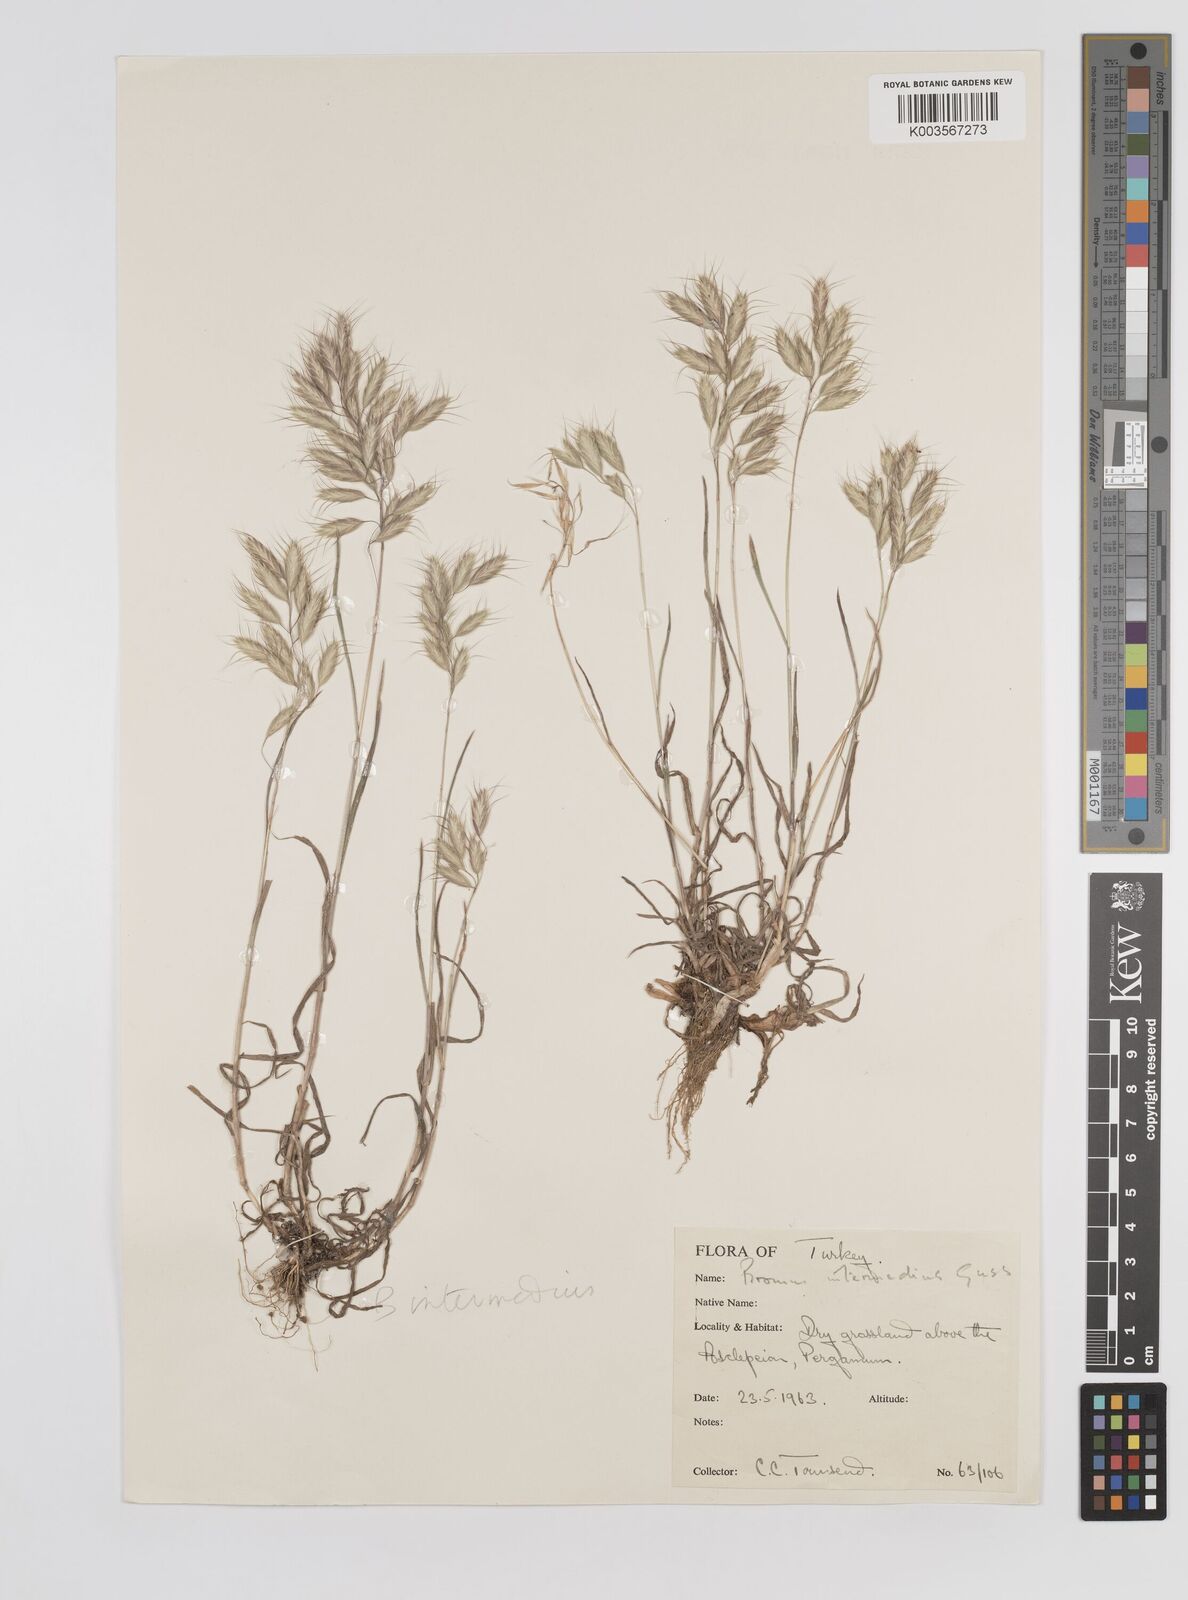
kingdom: Plantae
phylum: Tracheophyta
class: Liliopsida
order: Poales
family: Poaceae
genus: Bromus
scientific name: Bromus intermedius
